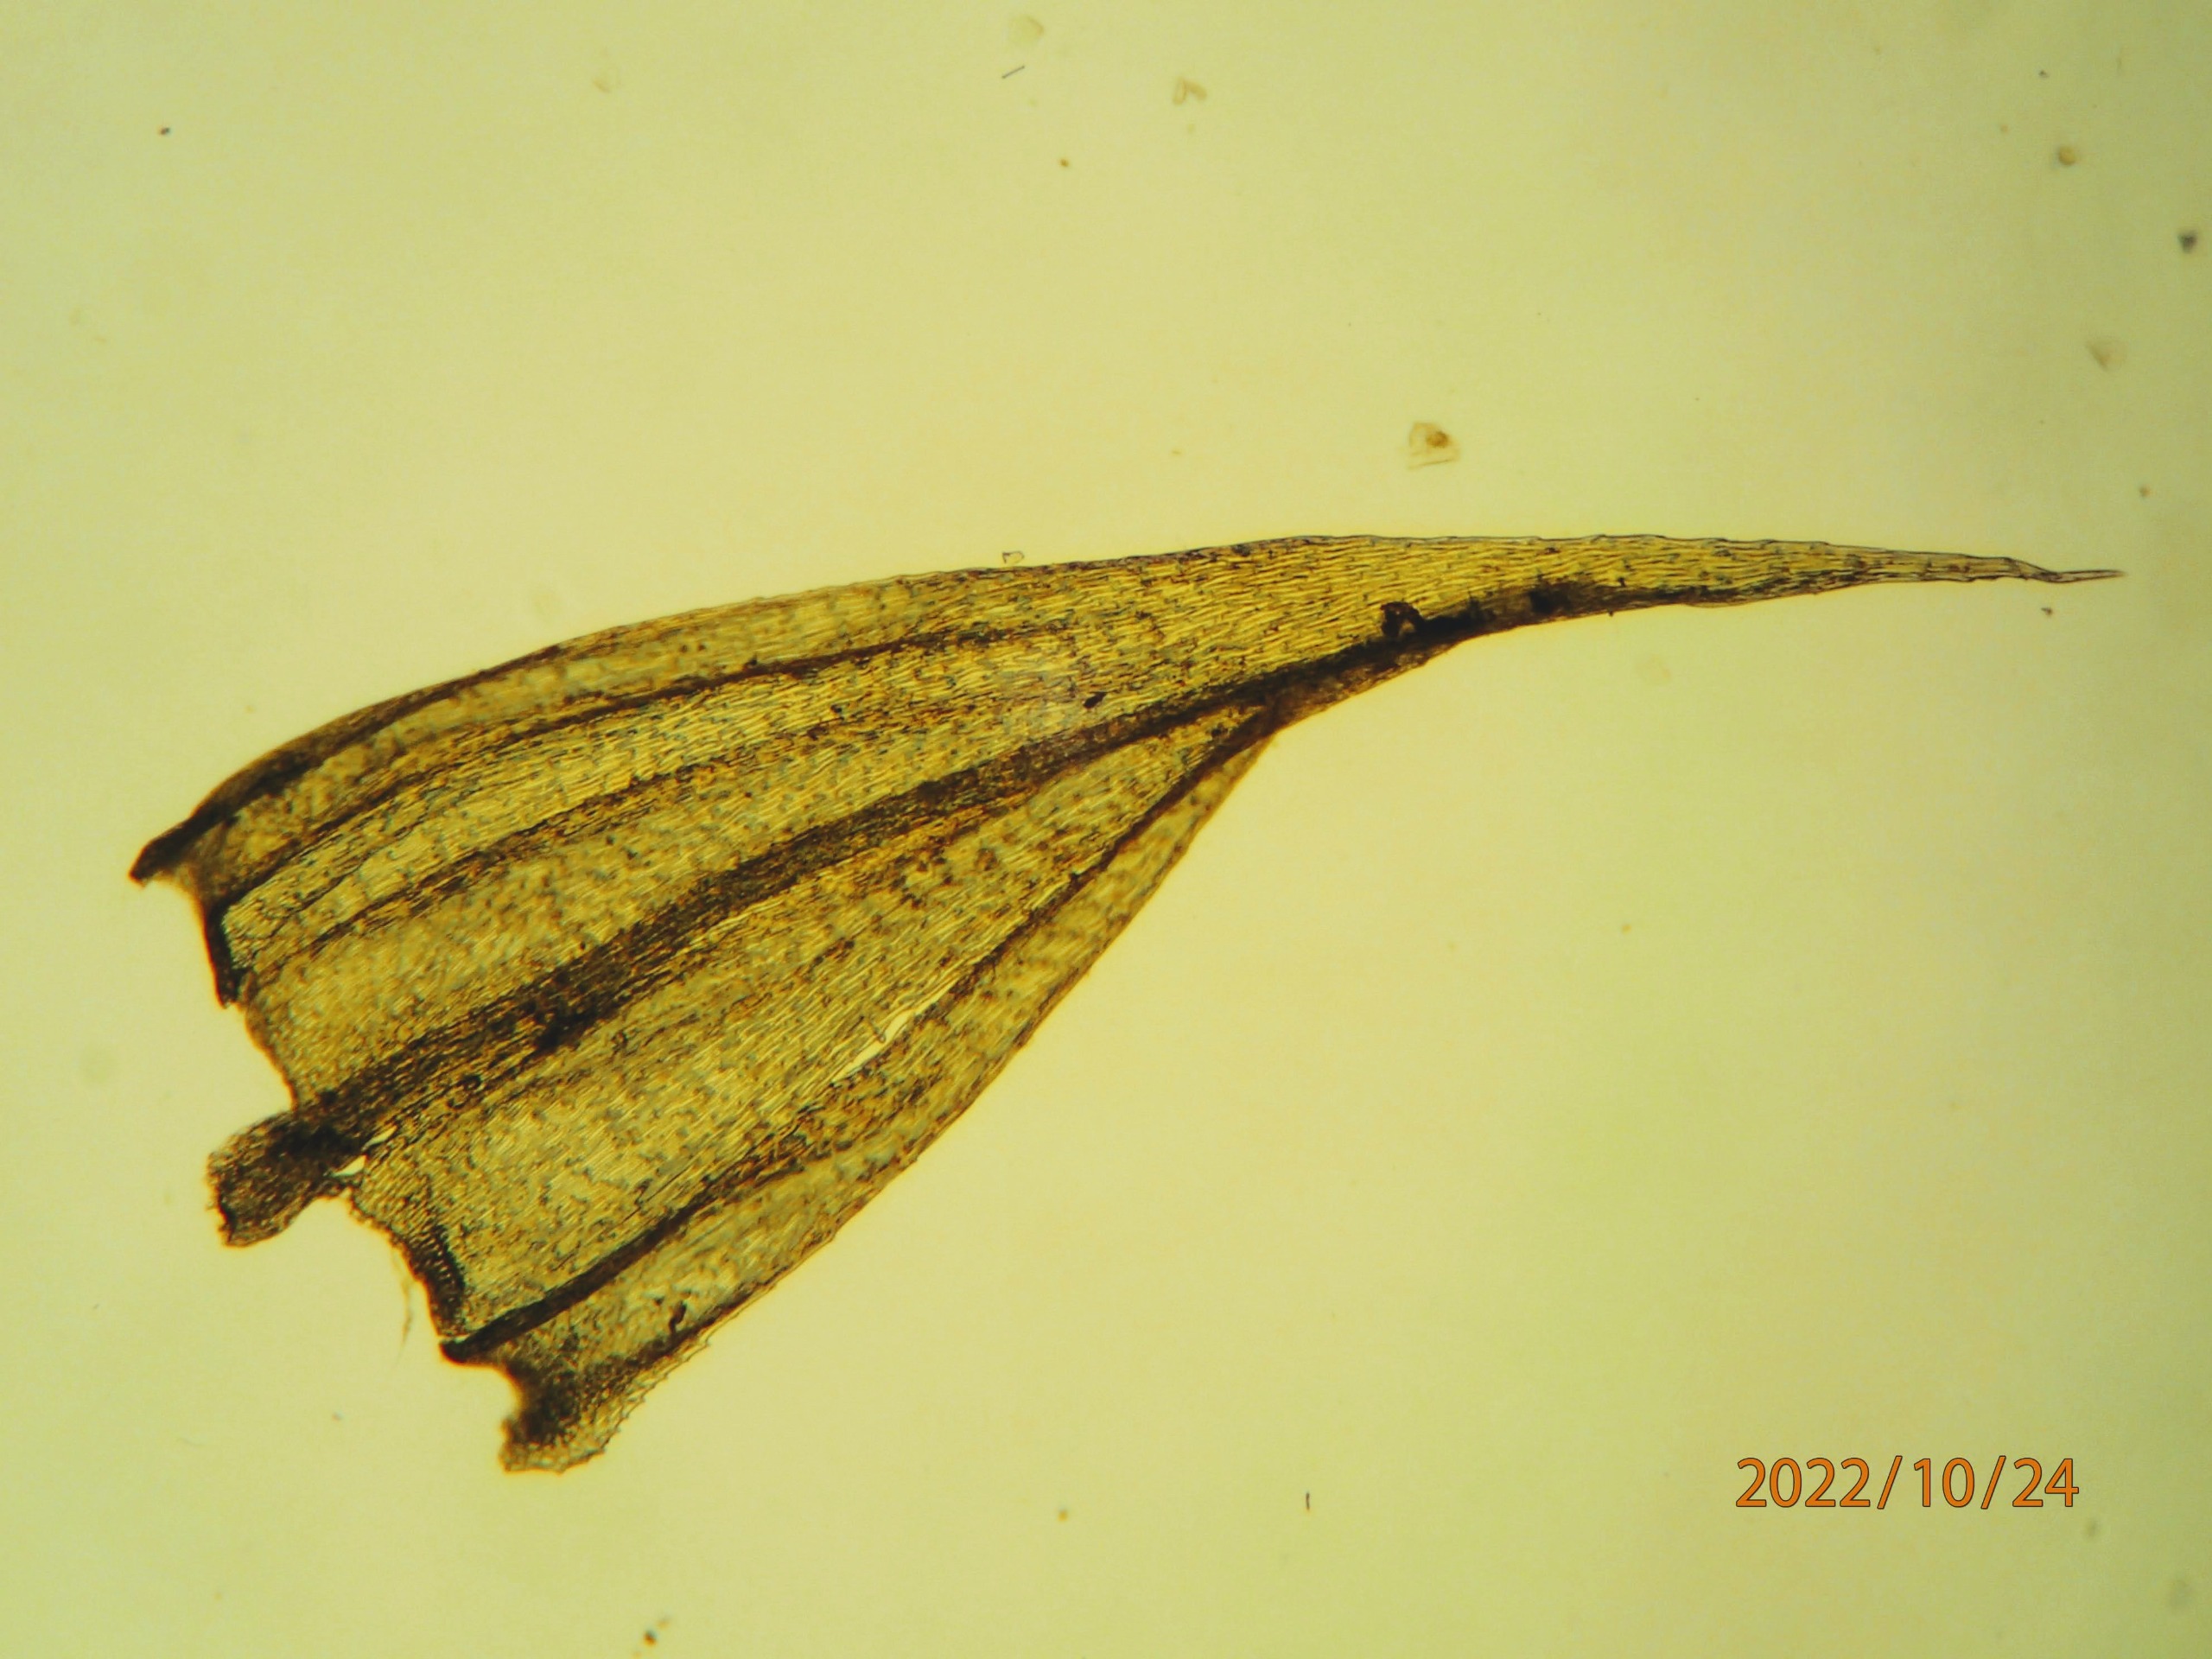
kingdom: Plantae
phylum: Bryophyta
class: Bryopsida
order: Hypnales
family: Brachytheciaceae
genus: Homalothecium
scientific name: Homalothecium sericeum
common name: Krybende silkemos
